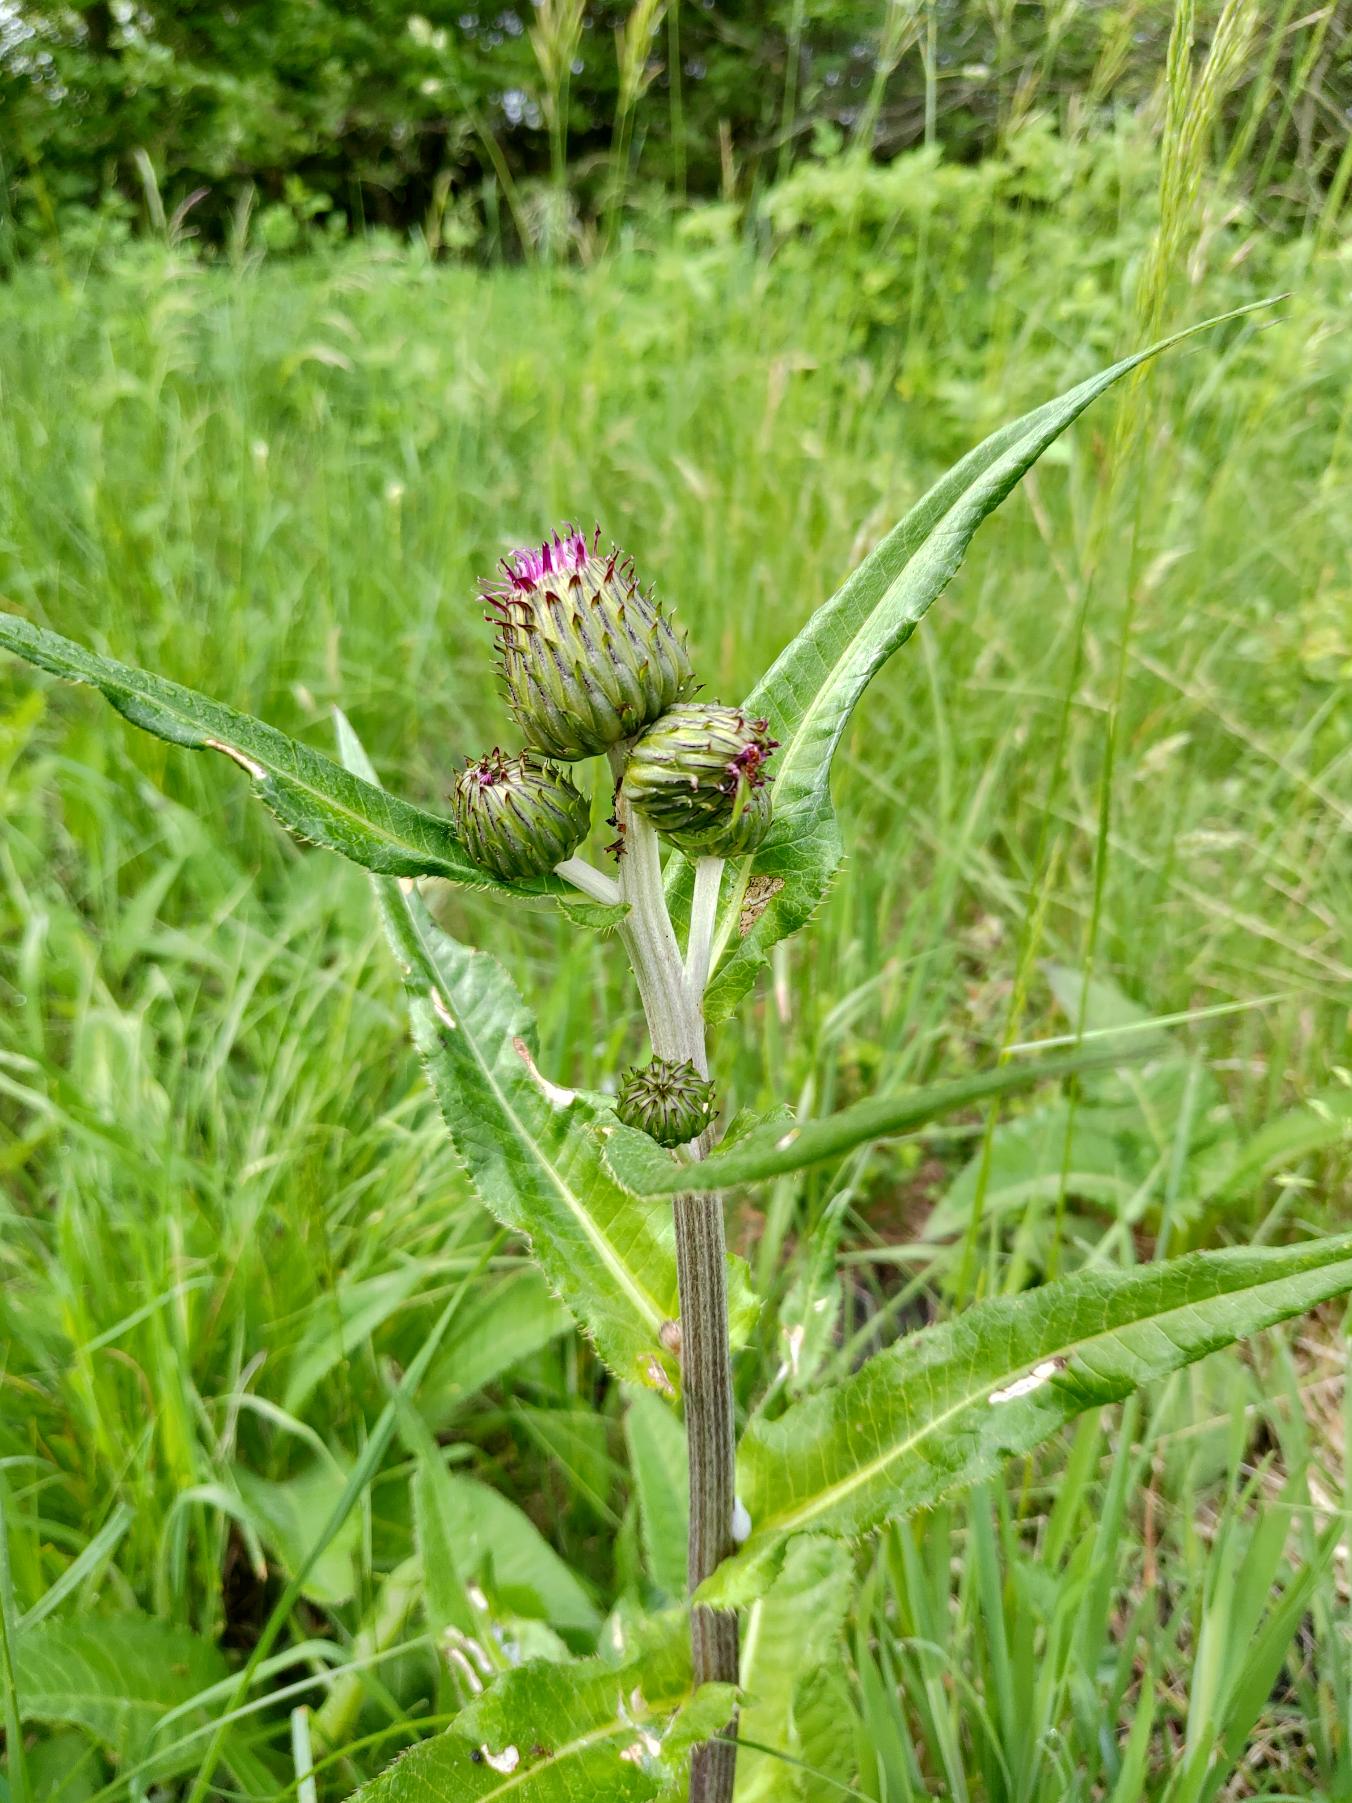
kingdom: Plantae
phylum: Tracheophyta
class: Magnoliopsida
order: Asterales
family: Asteraceae
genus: Cirsium
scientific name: Cirsium heterophyllum
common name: Forskelligbladet tidsel
